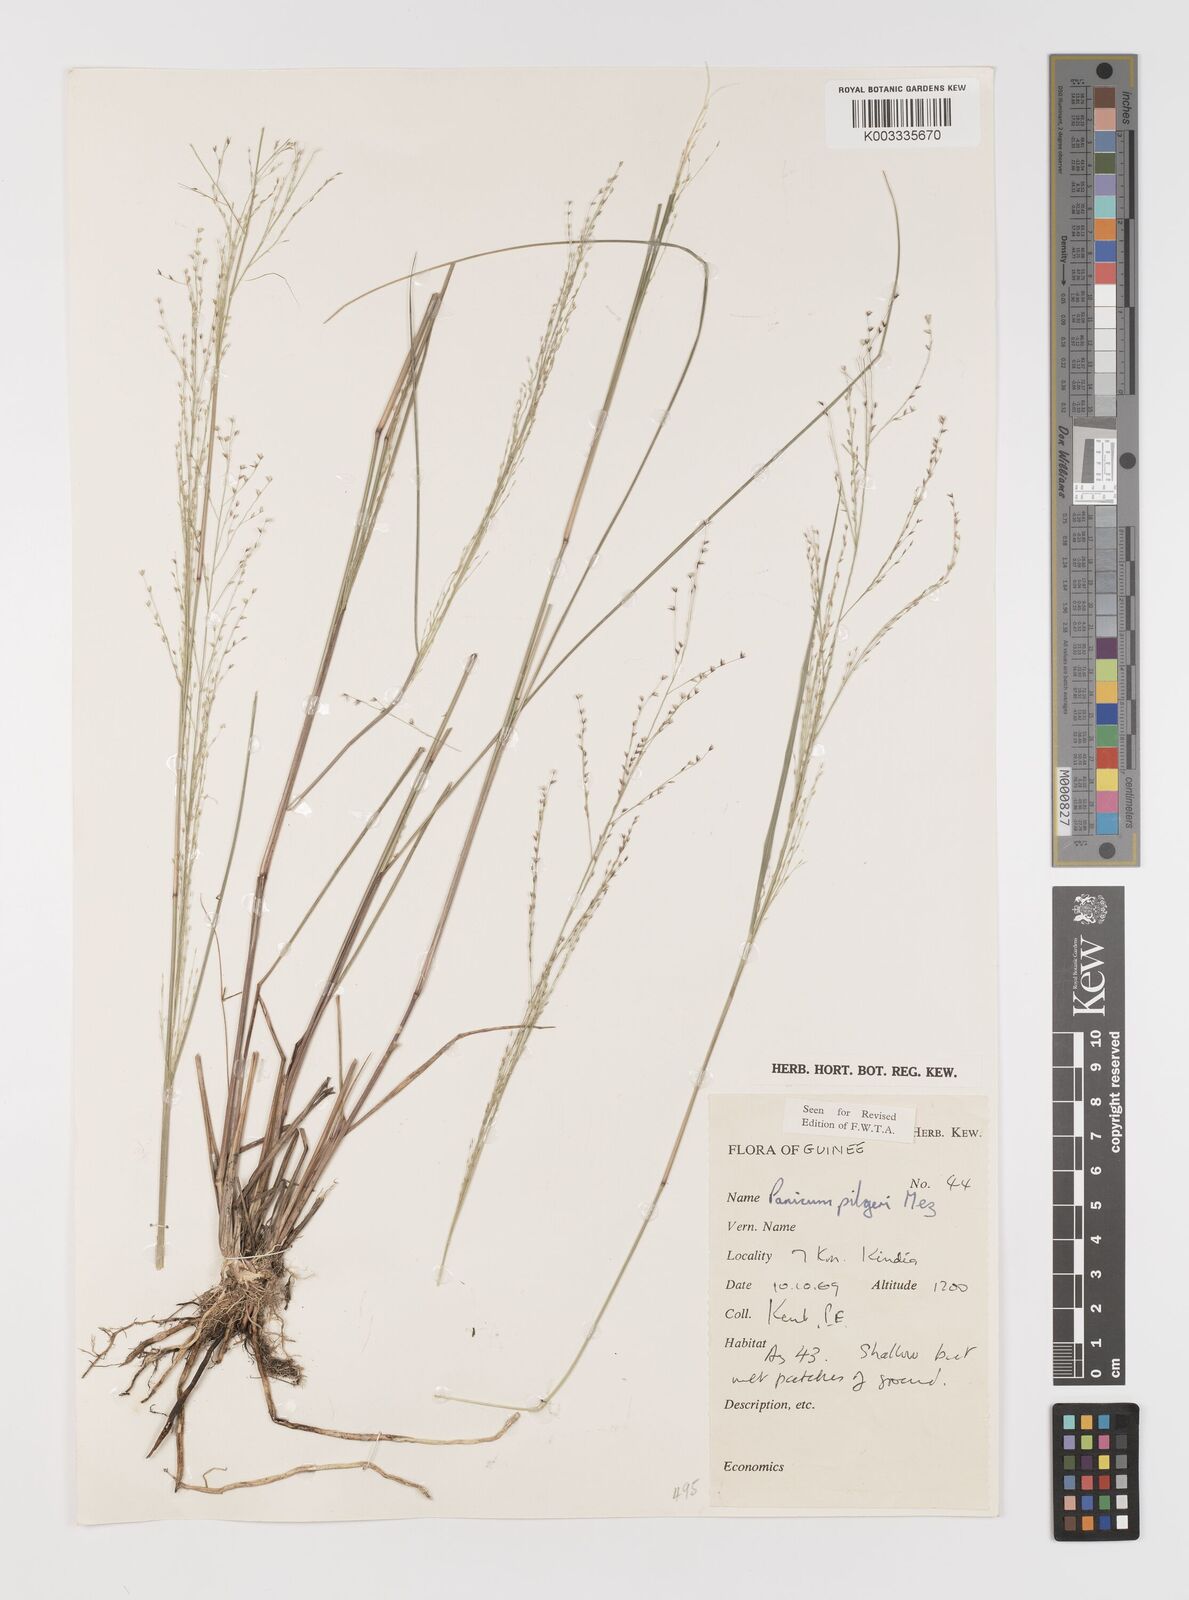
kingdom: Plantae
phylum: Tracheophyta
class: Liliopsida
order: Poales
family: Poaceae
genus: Panicum
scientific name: Panicum
